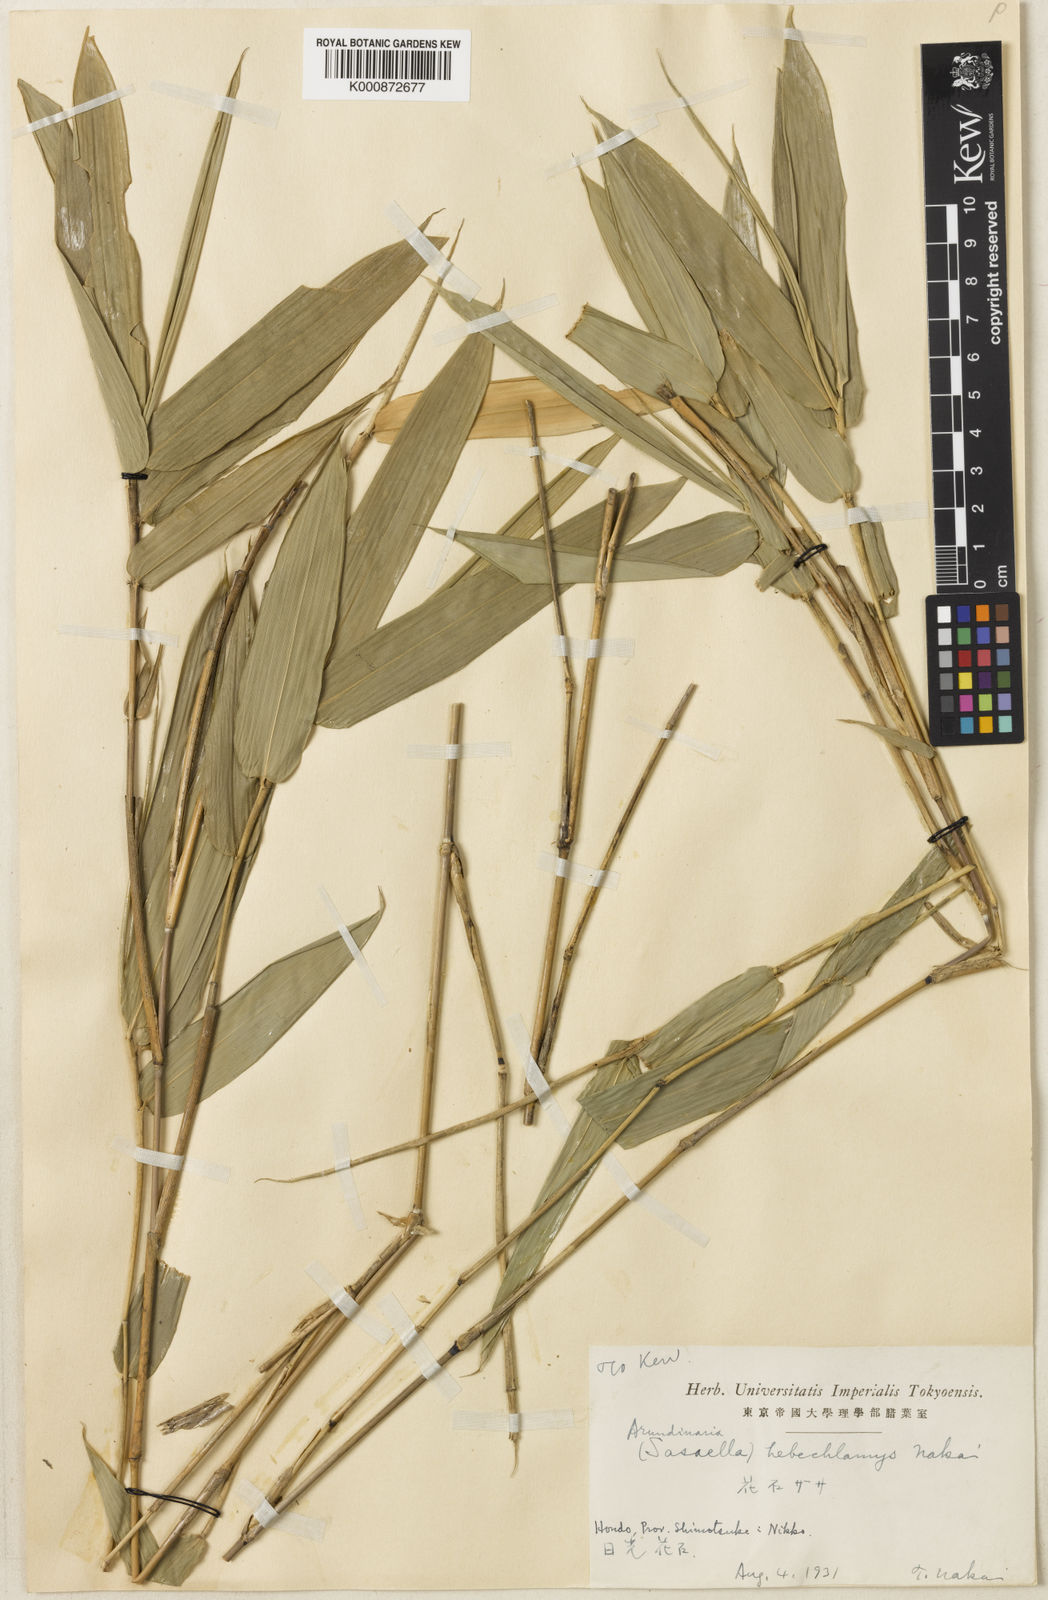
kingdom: Plantae
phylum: Tracheophyta
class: Liliopsida
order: Poales
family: Poaceae
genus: Sasaella
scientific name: Sasaella hidaensis
